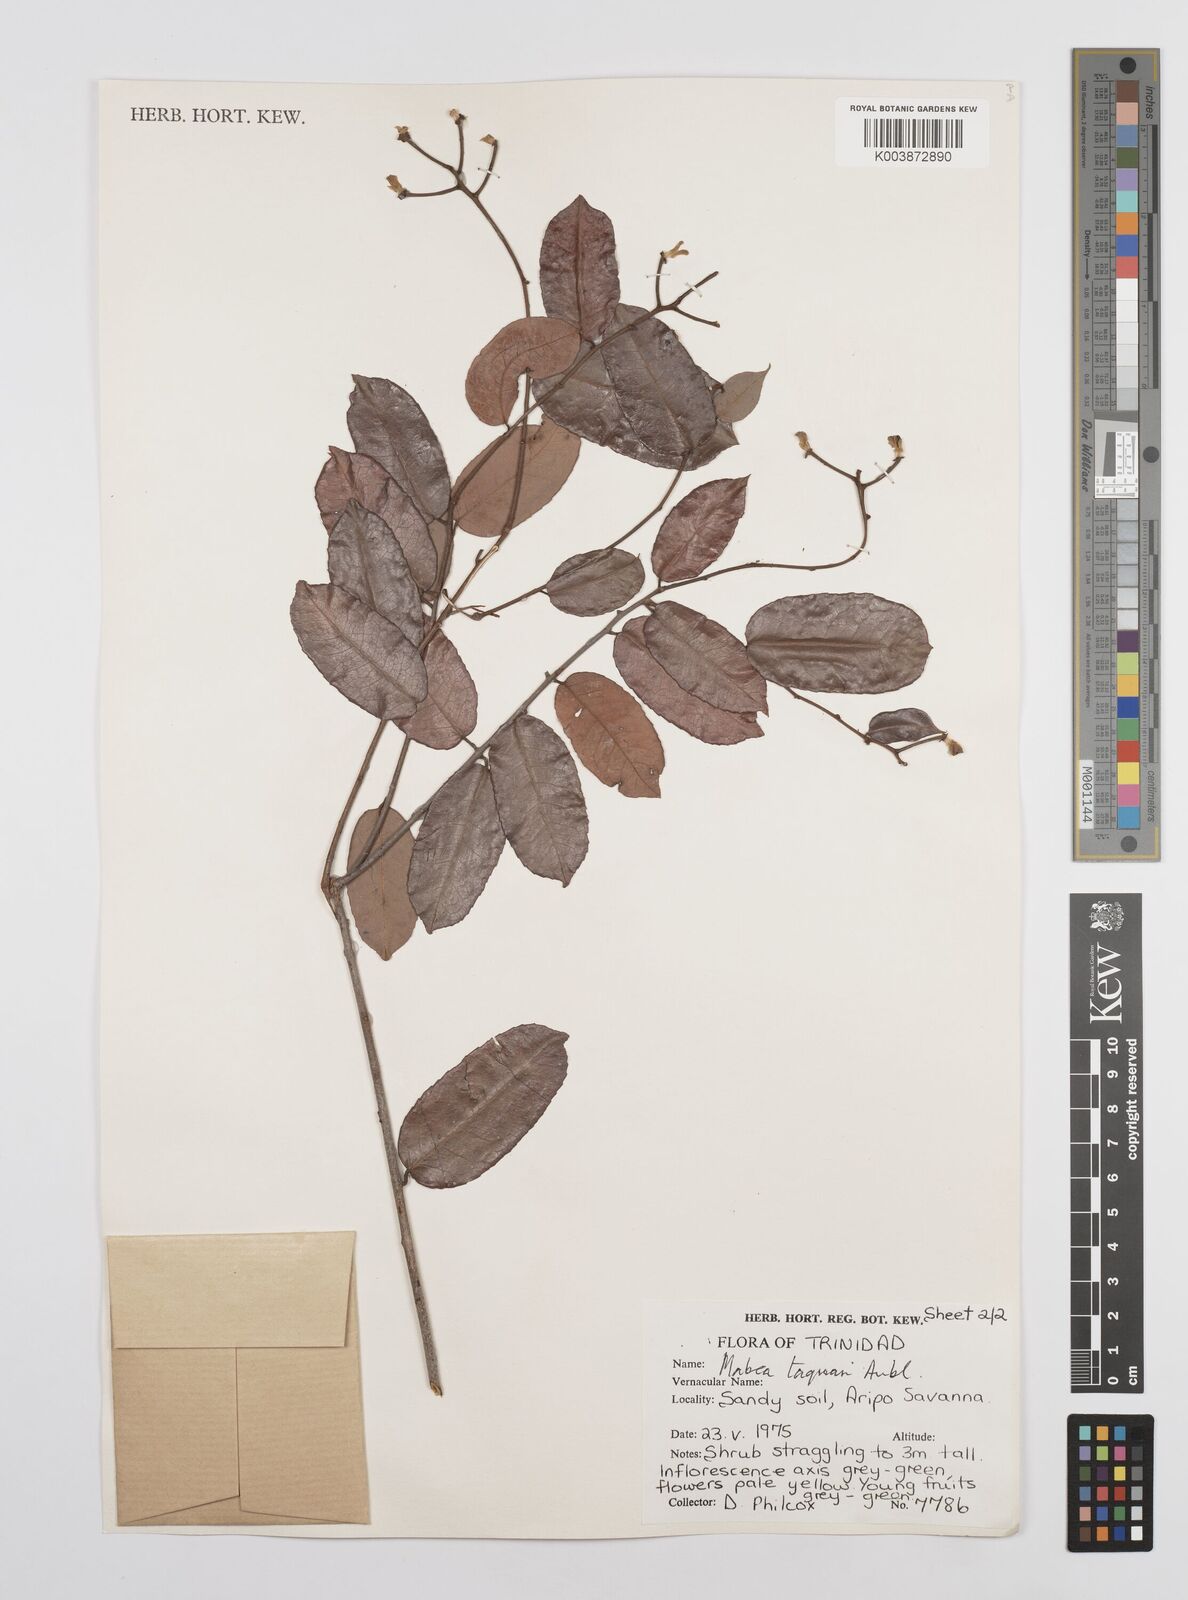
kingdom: Plantae
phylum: Tracheophyta
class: Magnoliopsida
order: Malpighiales
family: Euphorbiaceae
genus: Mabea
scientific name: Mabea taquari
